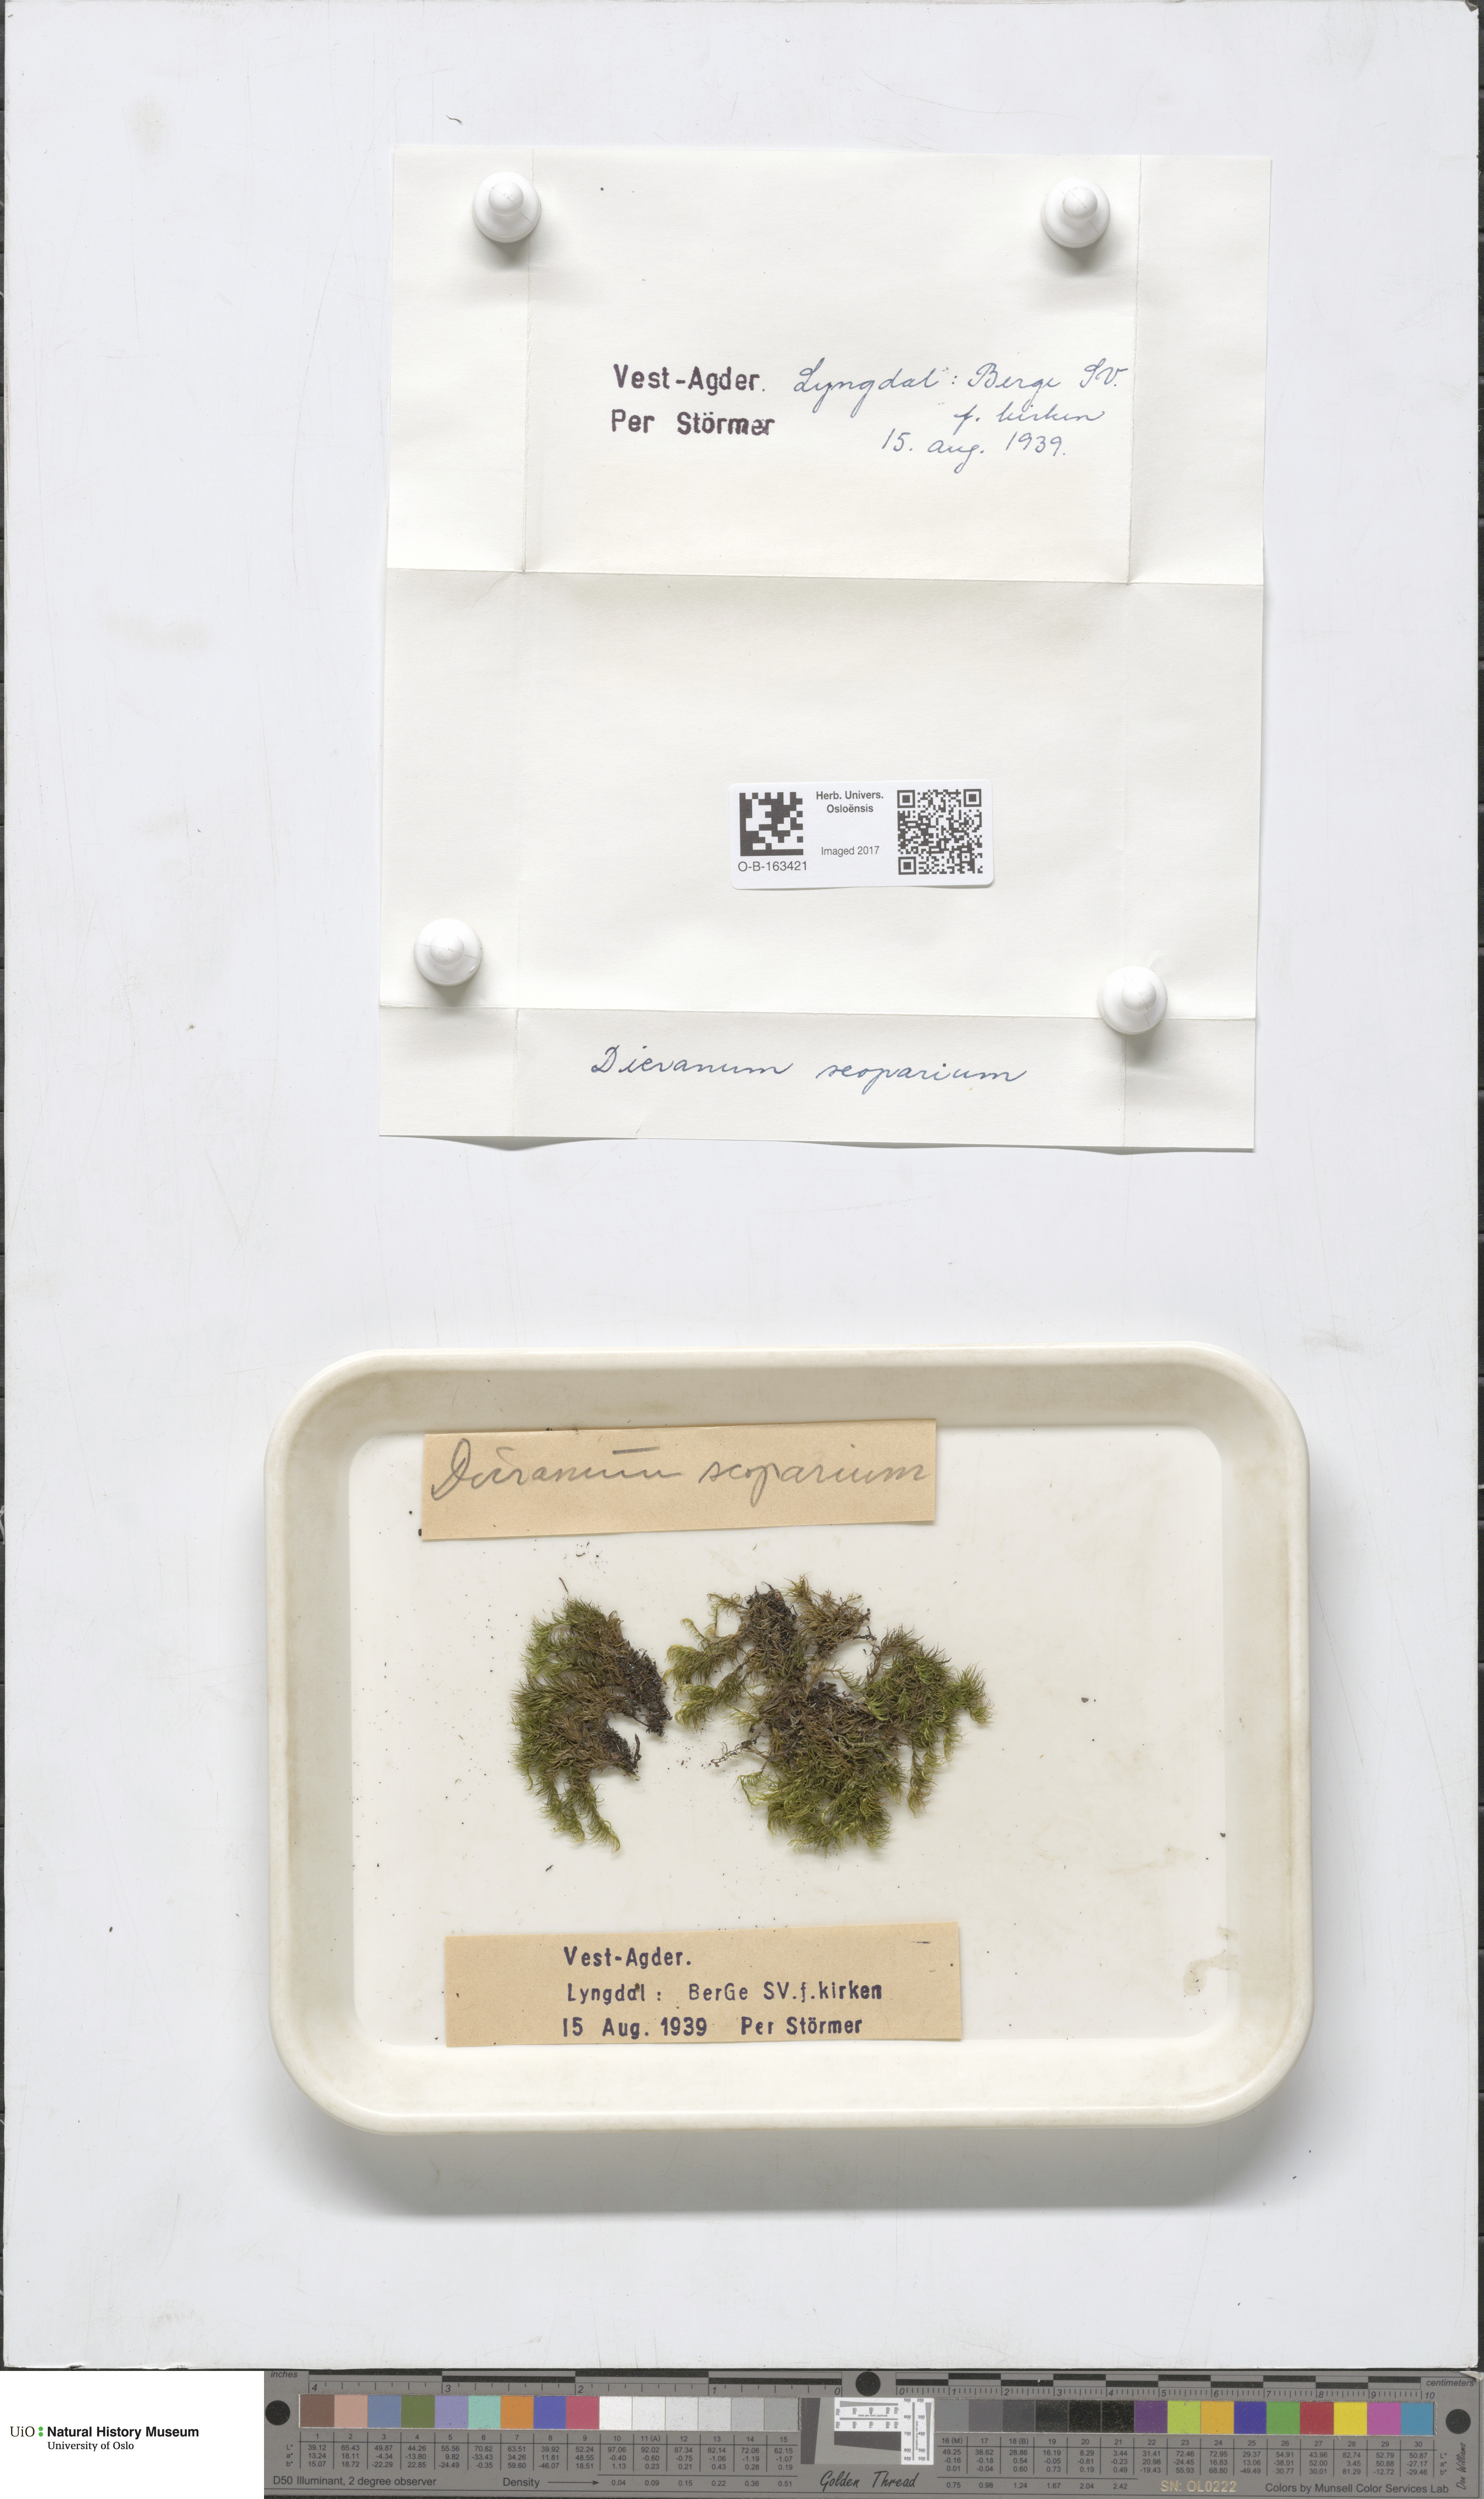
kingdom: Plantae
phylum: Bryophyta
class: Bryopsida
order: Dicranales
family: Dicranaceae
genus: Dicranum
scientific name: Dicranum scoparium
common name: Broom fork-moss
